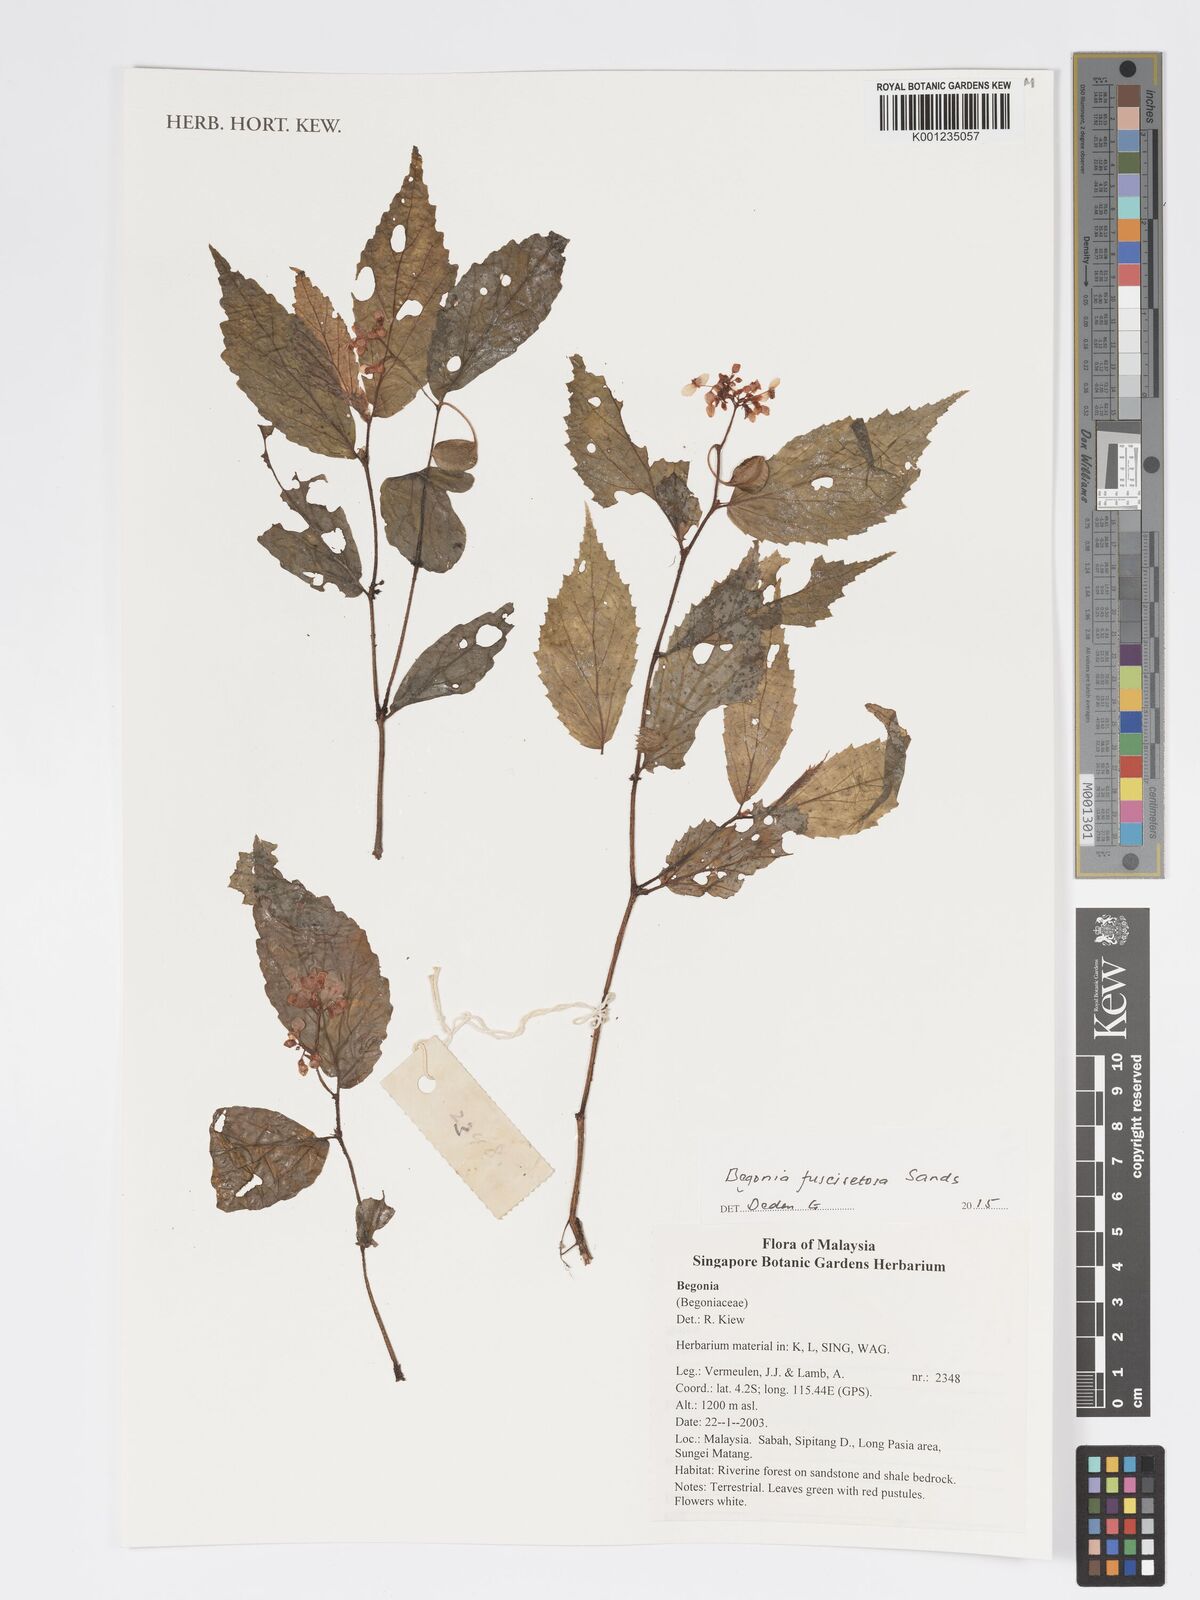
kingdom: Plantae
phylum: Tracheophyta
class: Magnoliopsida
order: Cucurbitales
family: Begoniaceae
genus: Begonia
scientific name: Begonia fuscisetosa
